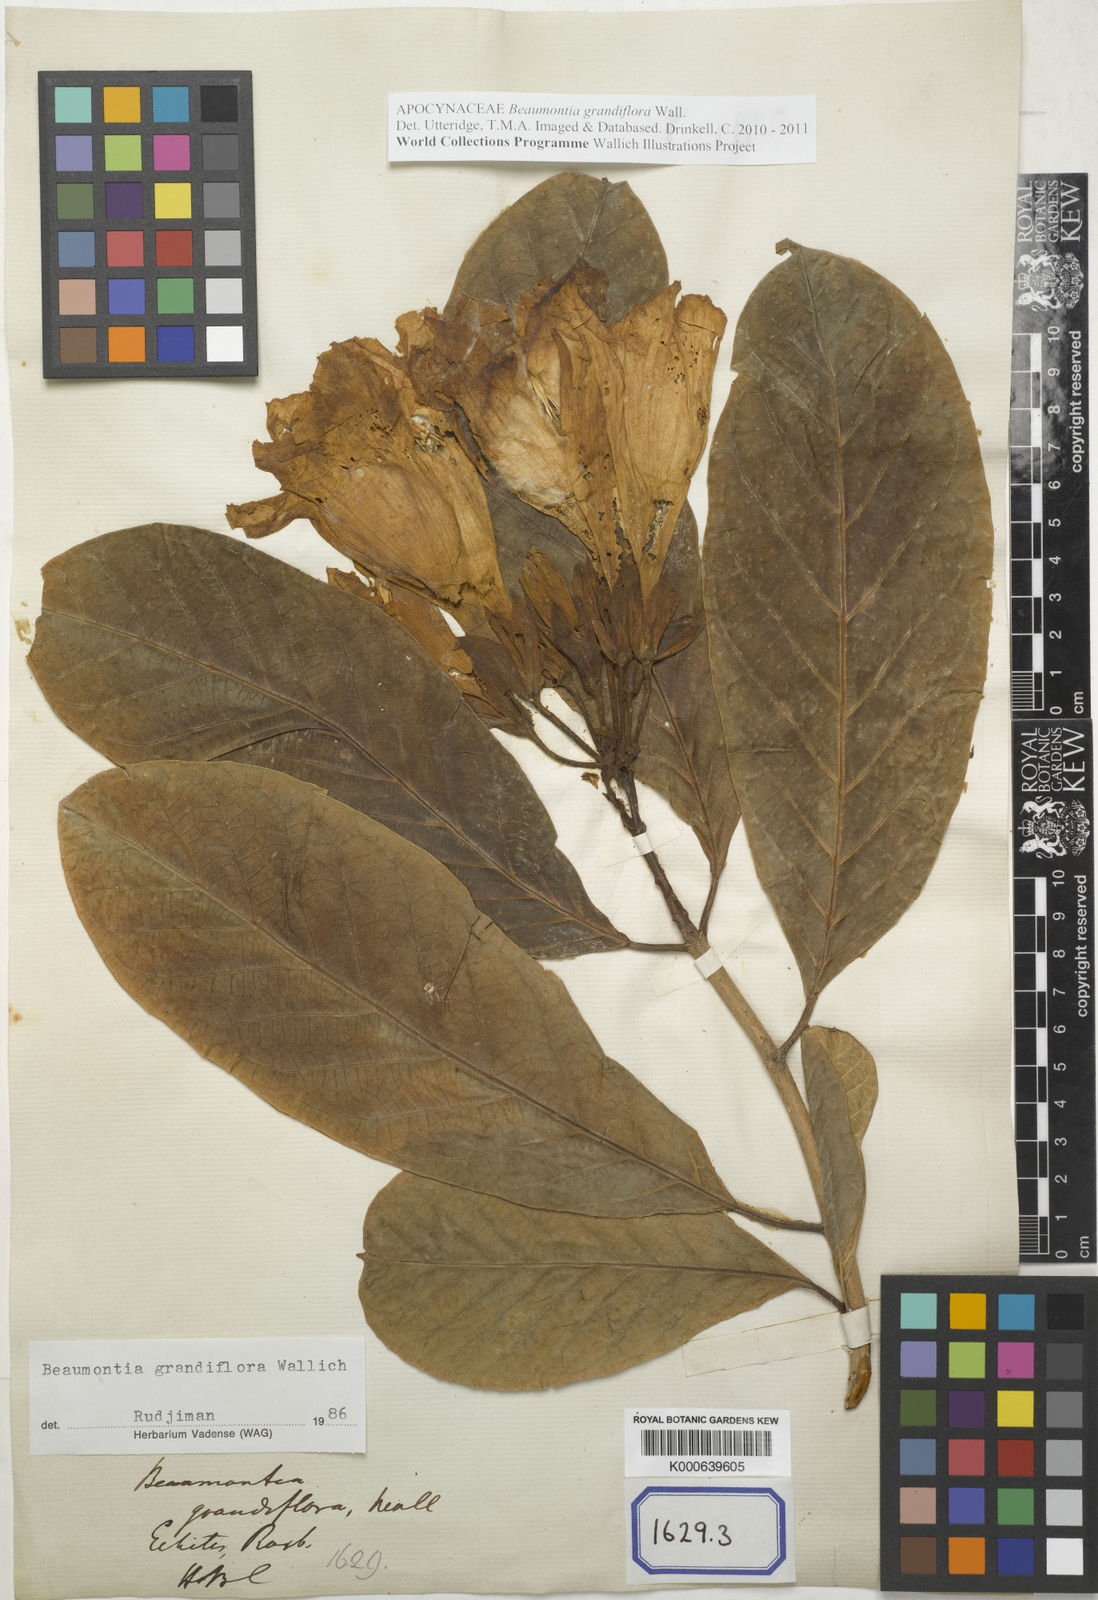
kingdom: Plantae
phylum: Tracheophyta
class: Magnoliopsida
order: Gentianales
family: Apocynaceae
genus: Beaumontia
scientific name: Beaumontia grandiflora
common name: Easter-lily-vine
